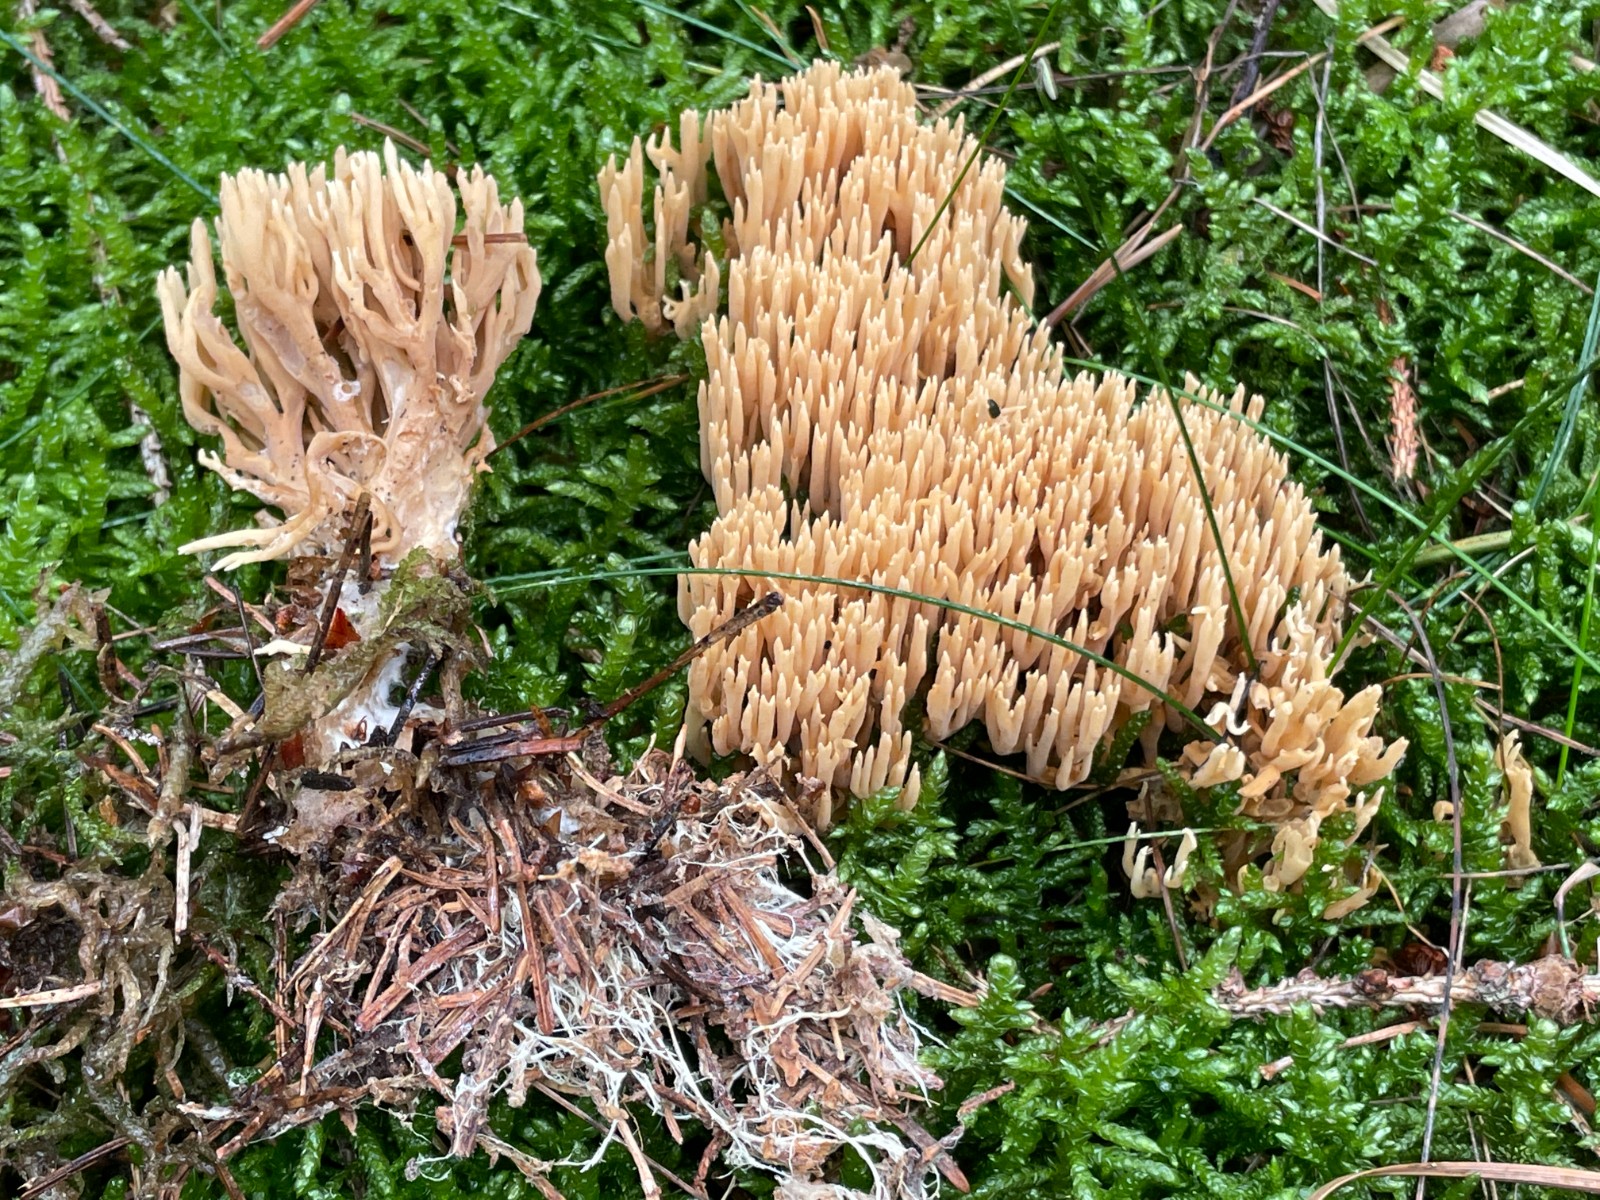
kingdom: Fungi
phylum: Basidiomycota
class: Agaricomycetes
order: Gomphales
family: Gomphaceae
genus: Phaeoclavulina
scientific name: Phaeoclavulina eumorpha
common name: gran-koralsvamp
